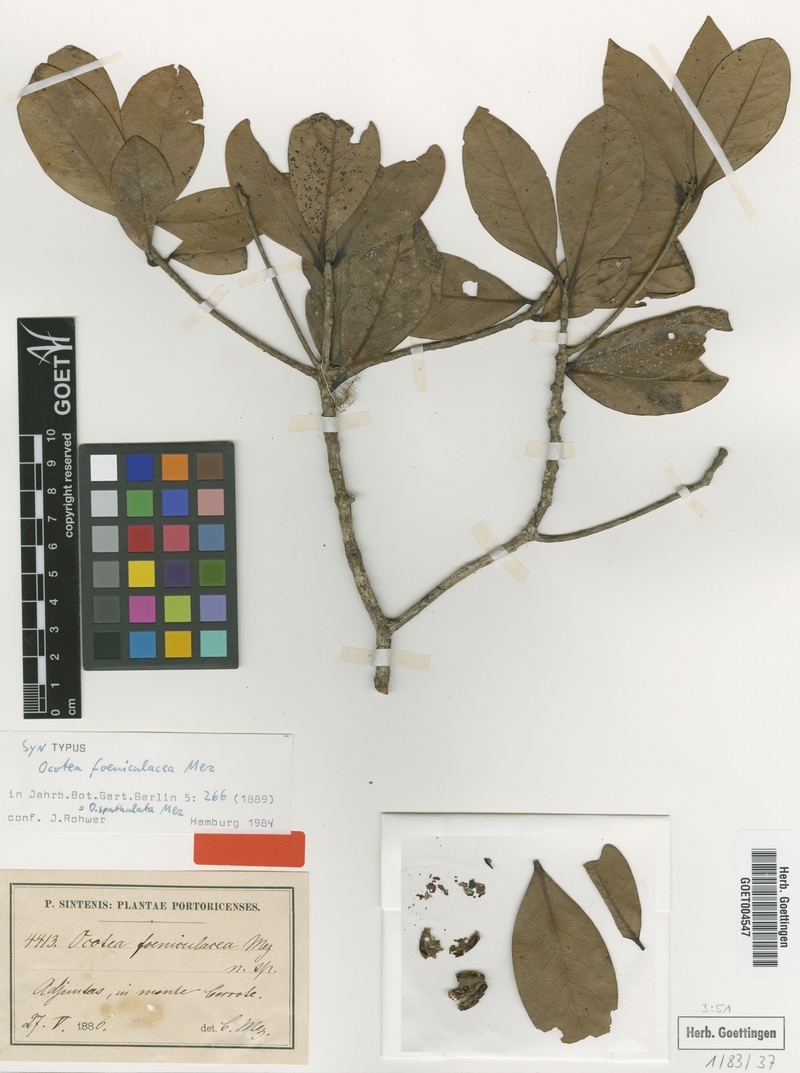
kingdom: Plantae
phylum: Tracheophyta
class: Magnoliopsida
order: Laurales
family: Lauraceae
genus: Ocotea
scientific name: Ocotea spathulata
